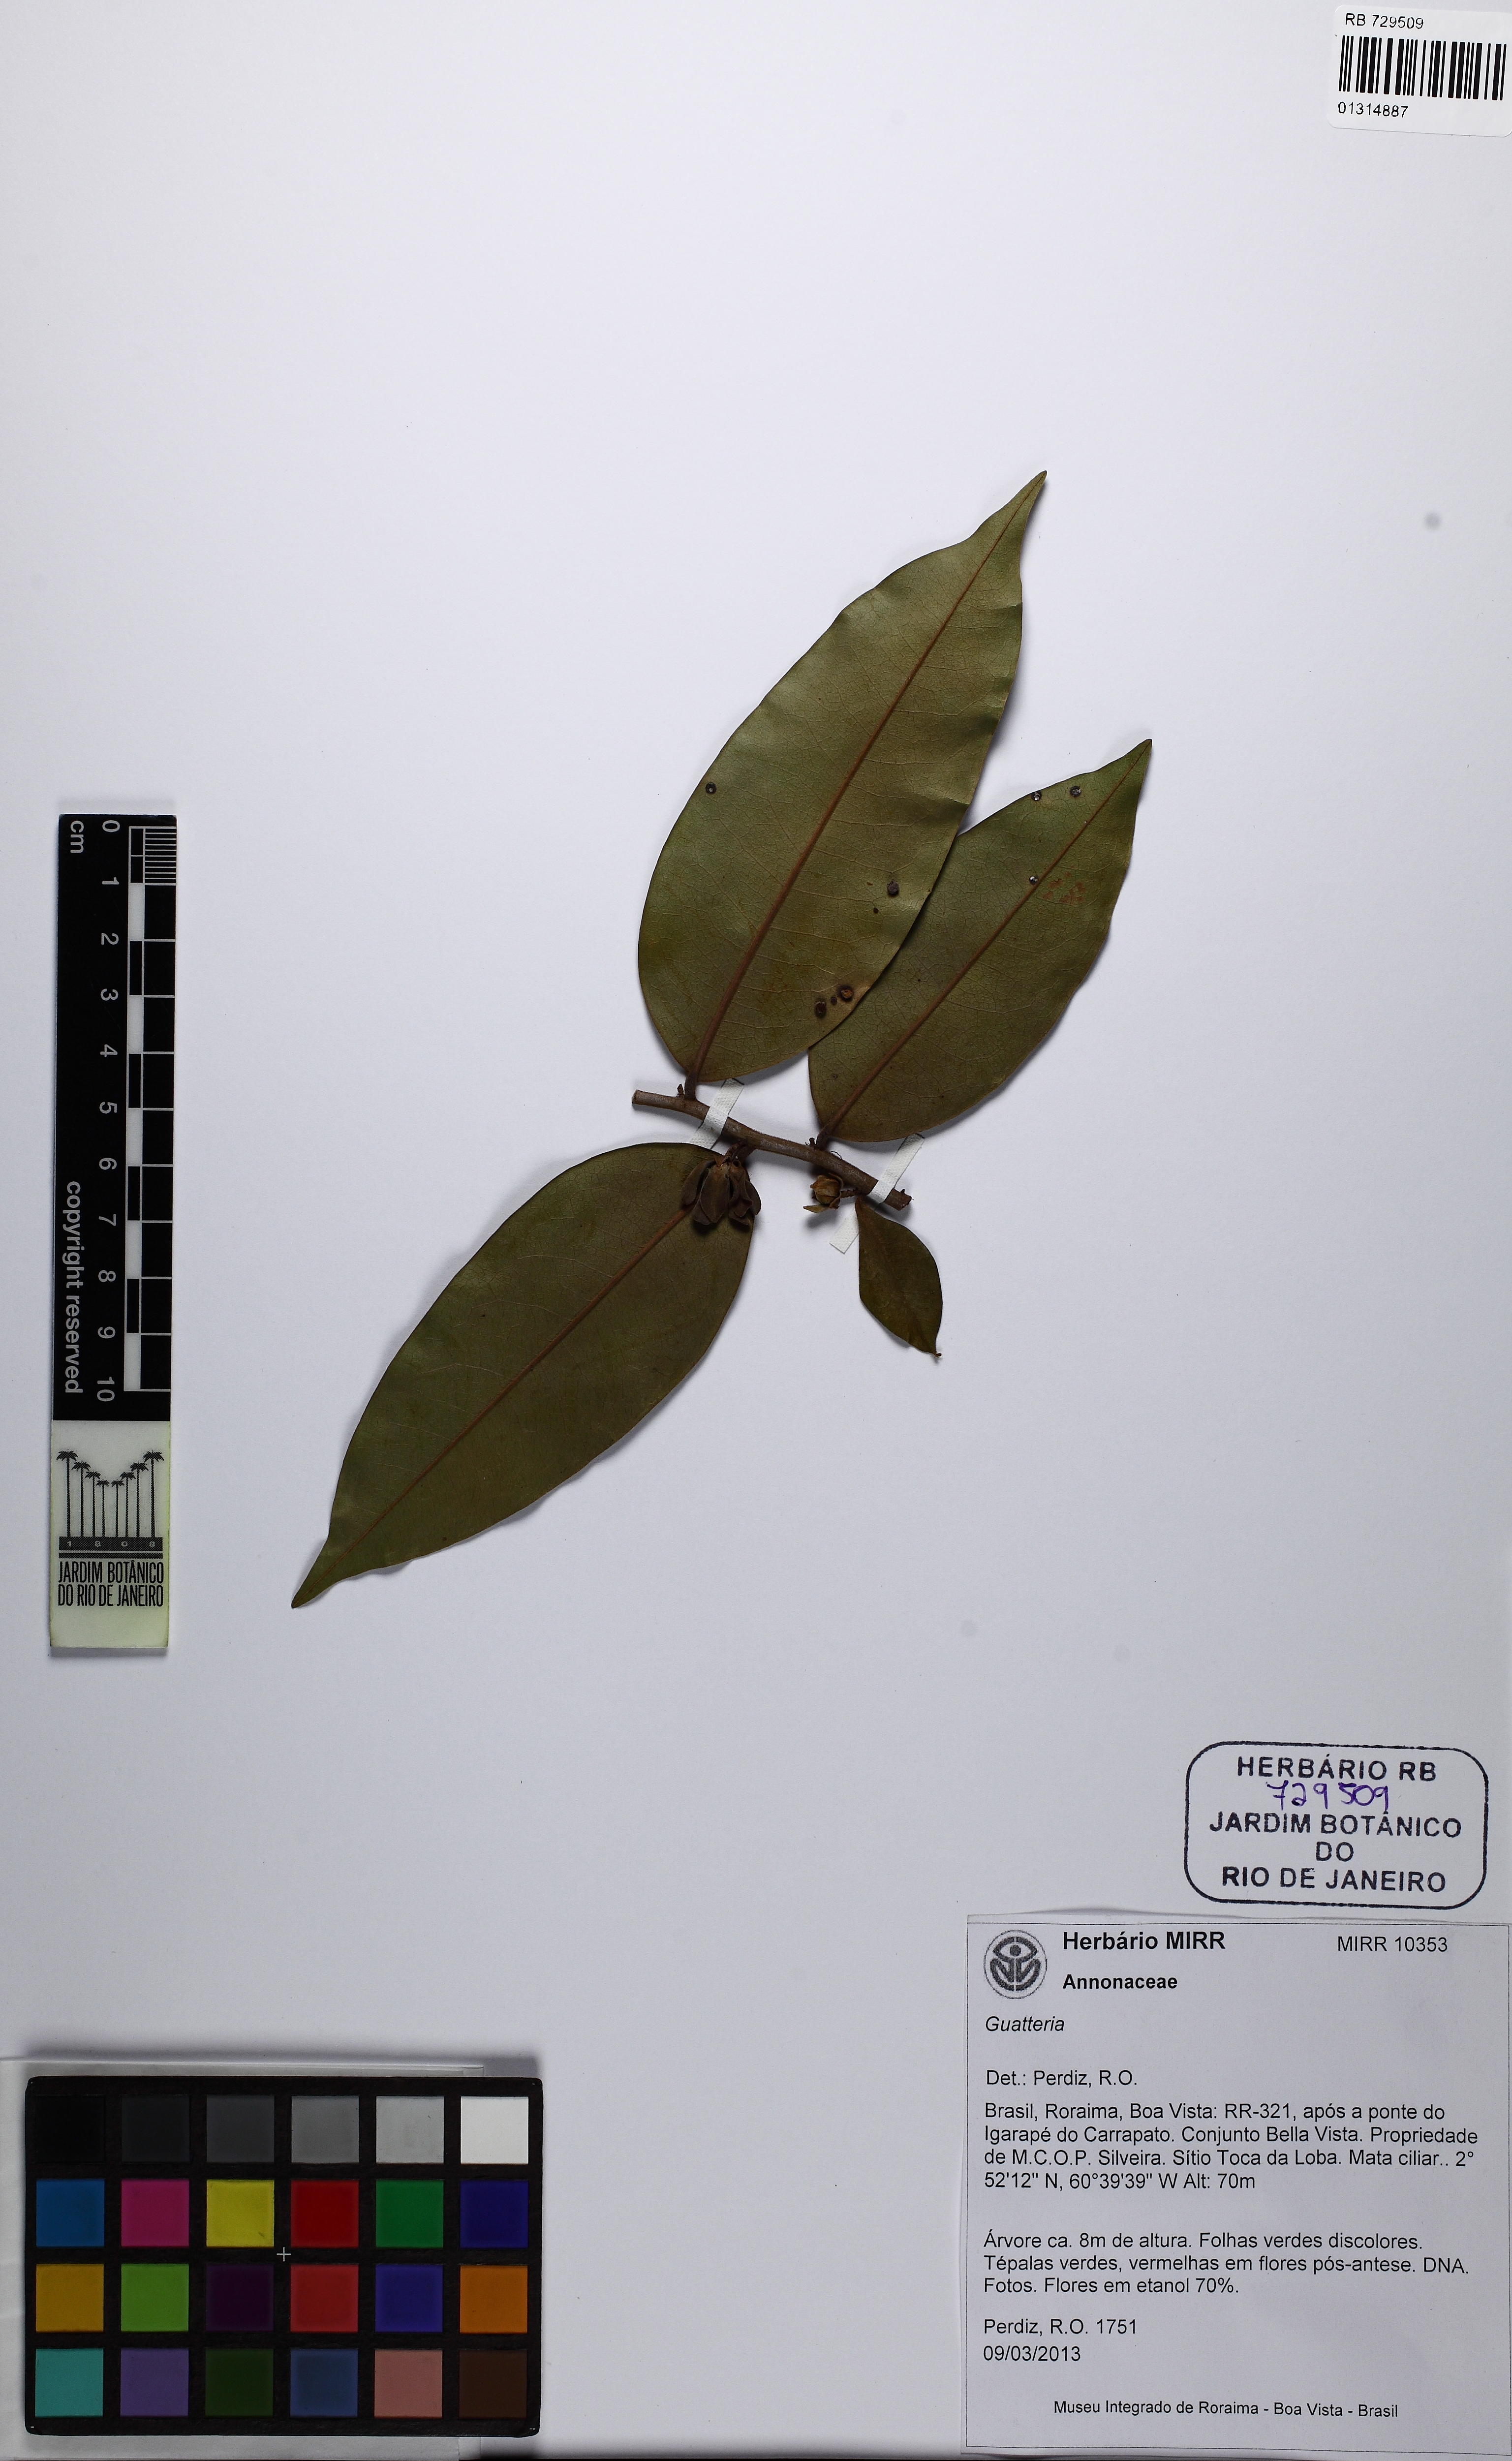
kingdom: Plantae
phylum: Tracheophyta
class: Magnoliopsida
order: Magnoliales
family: Annonaceae
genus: Guatteria
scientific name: Guatteria rigida
